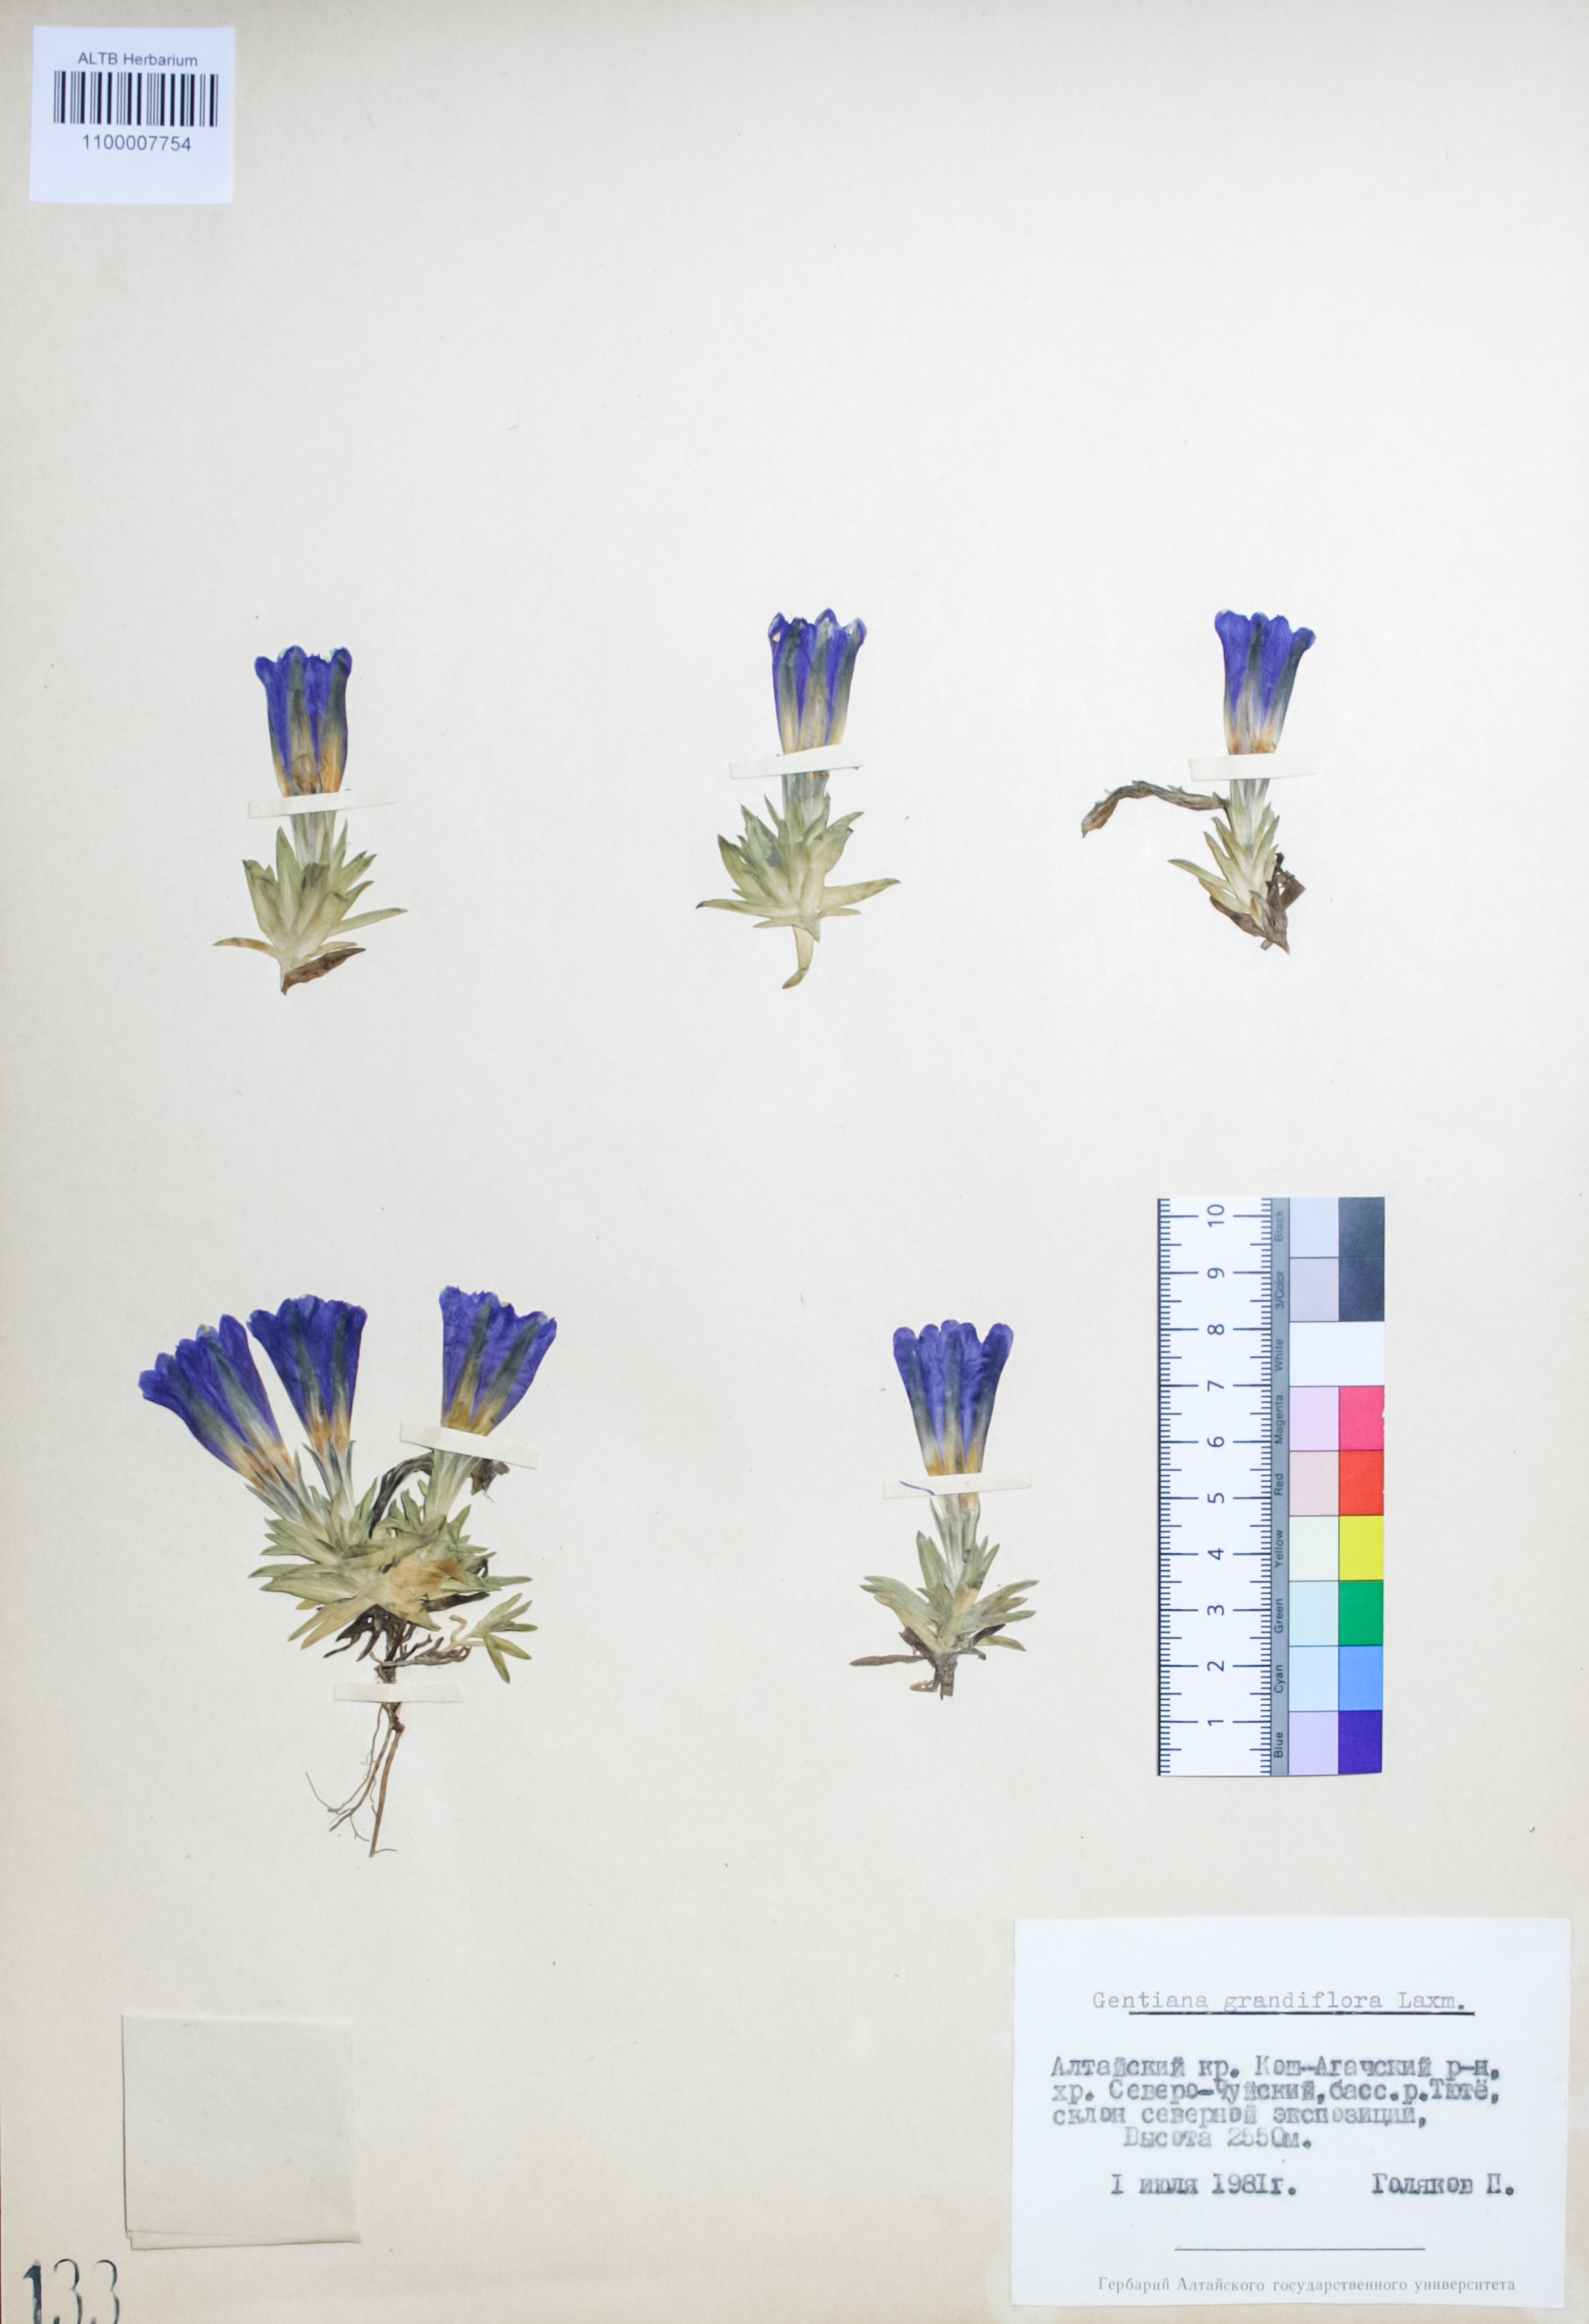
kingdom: Plantae
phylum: Tracheophyta
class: Magnoliopsida
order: Gentianales
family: Gentianaceae
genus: Gentiana
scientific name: Gentiana grandiflora
